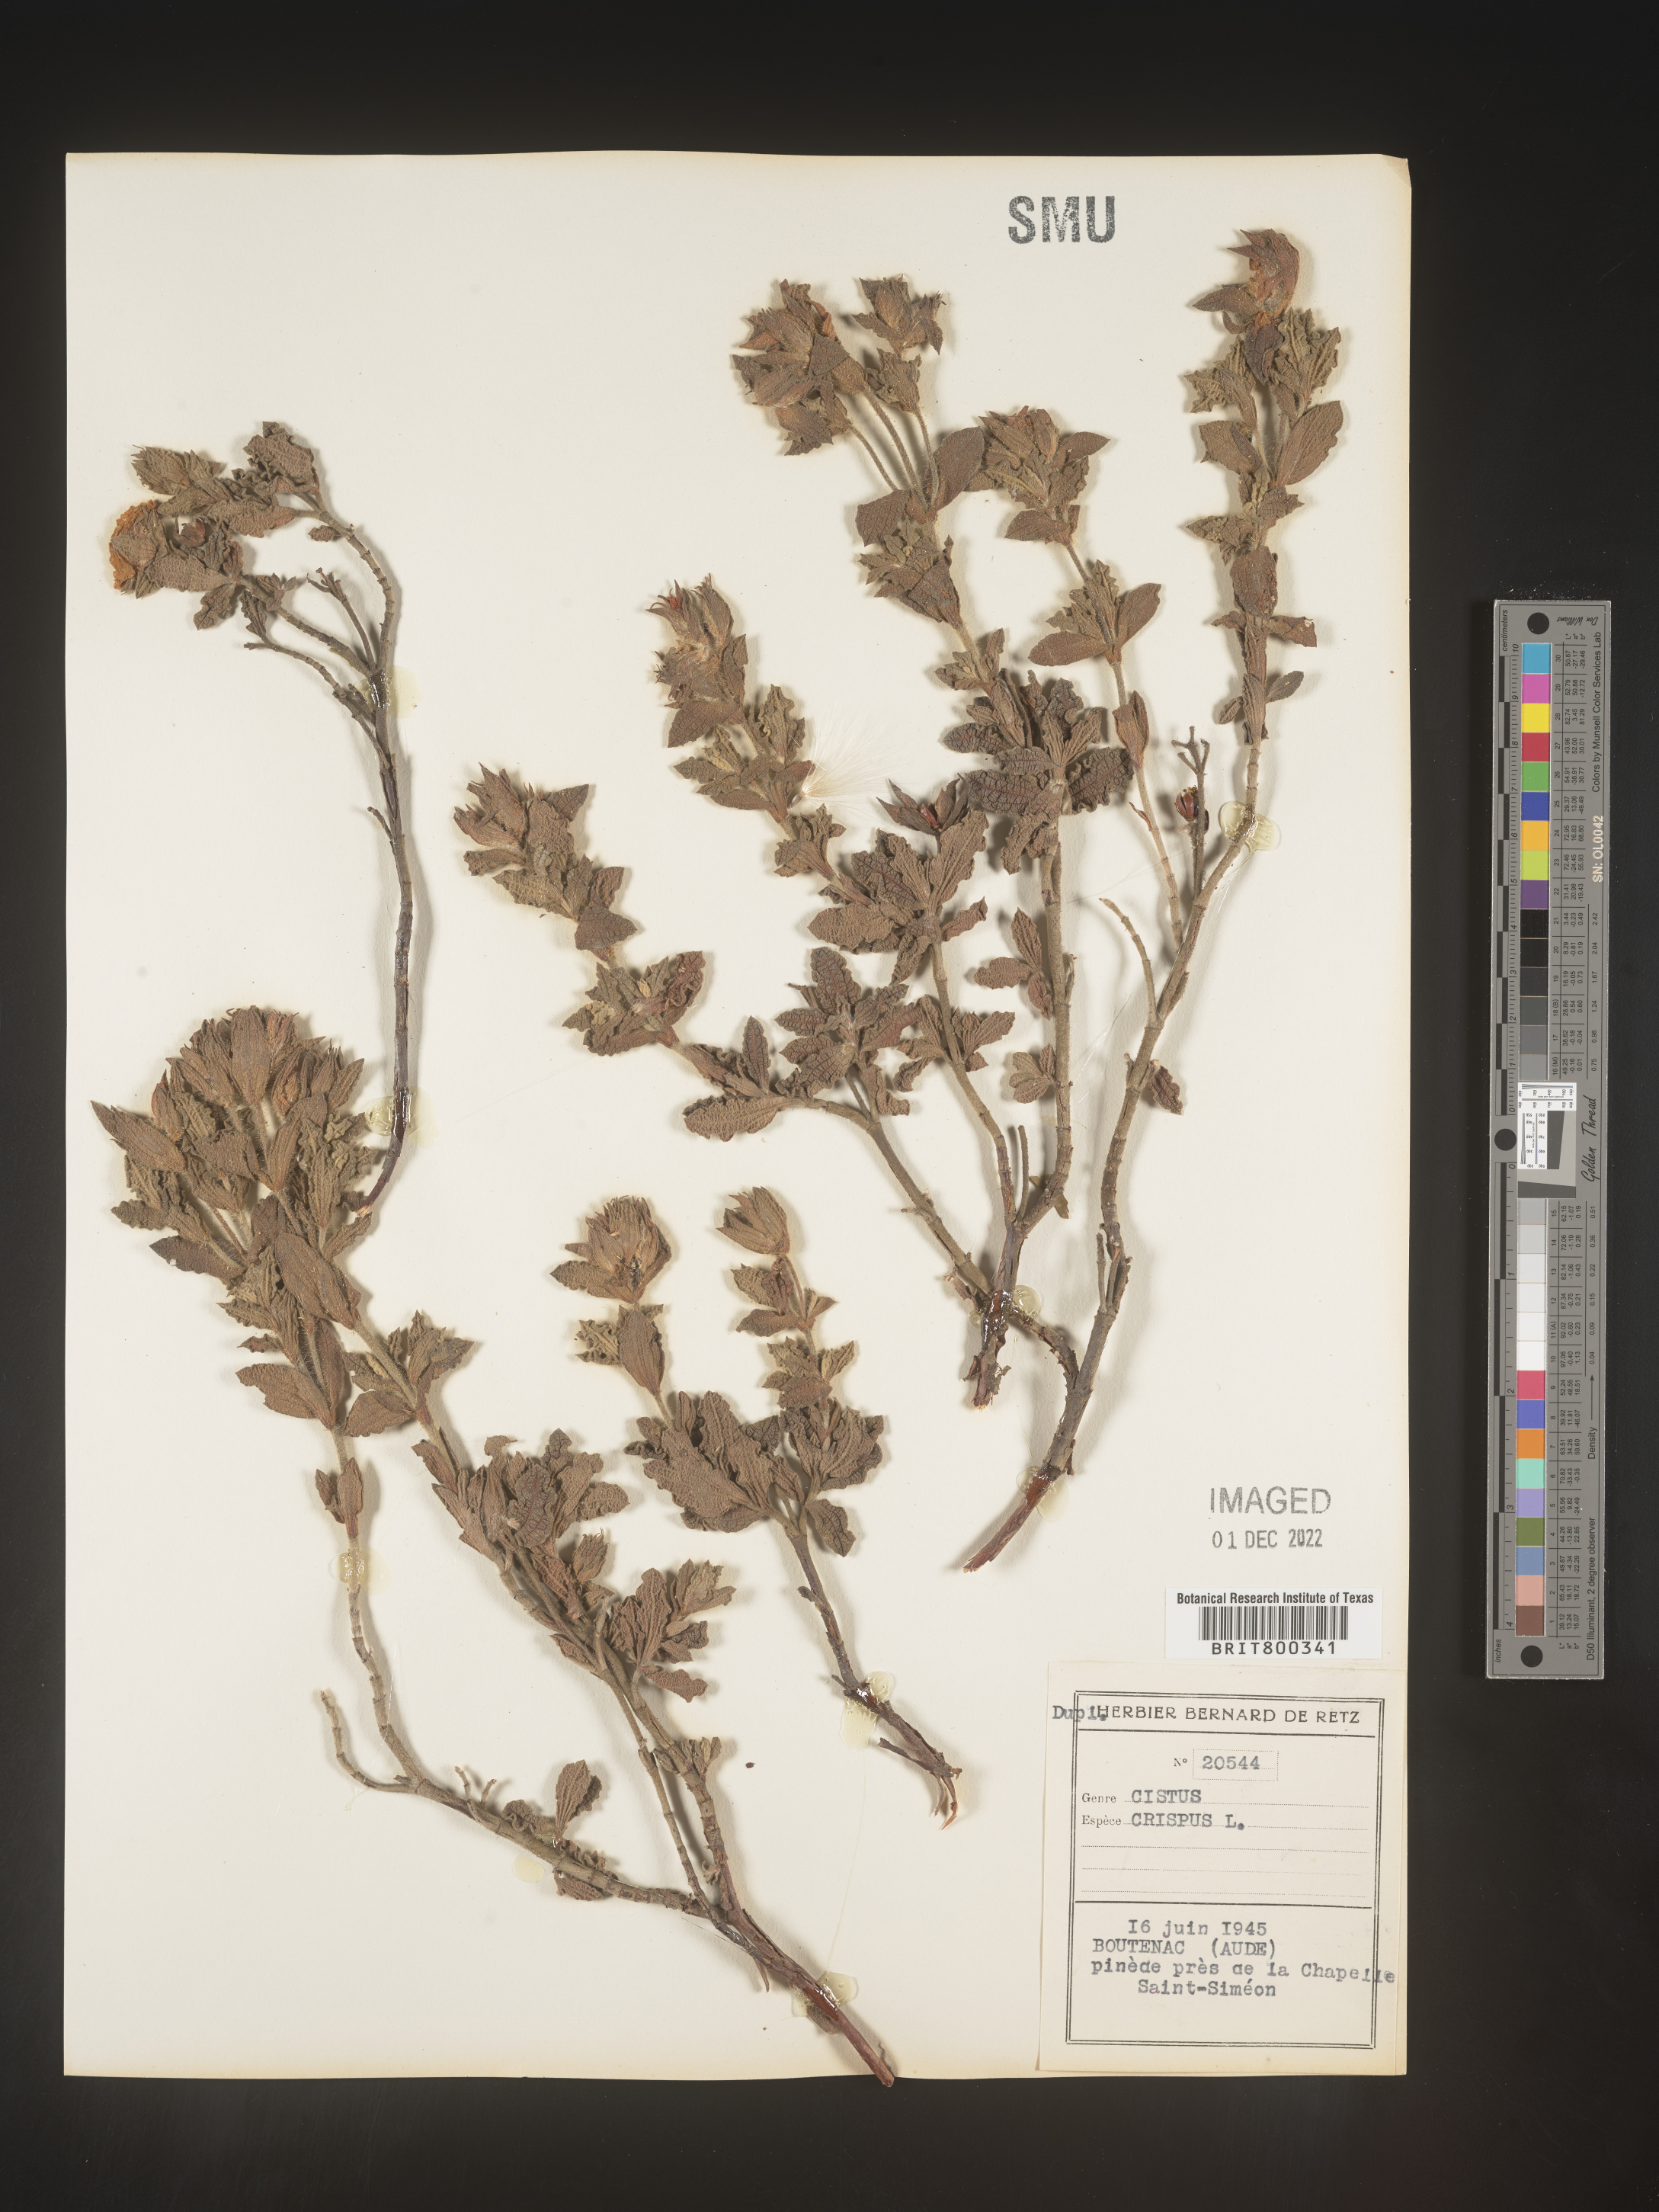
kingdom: Plantae
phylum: Tracheophyta
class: Magnoliopsida
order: Malvales
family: Cistaceae
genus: Cistus
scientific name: Cistus
